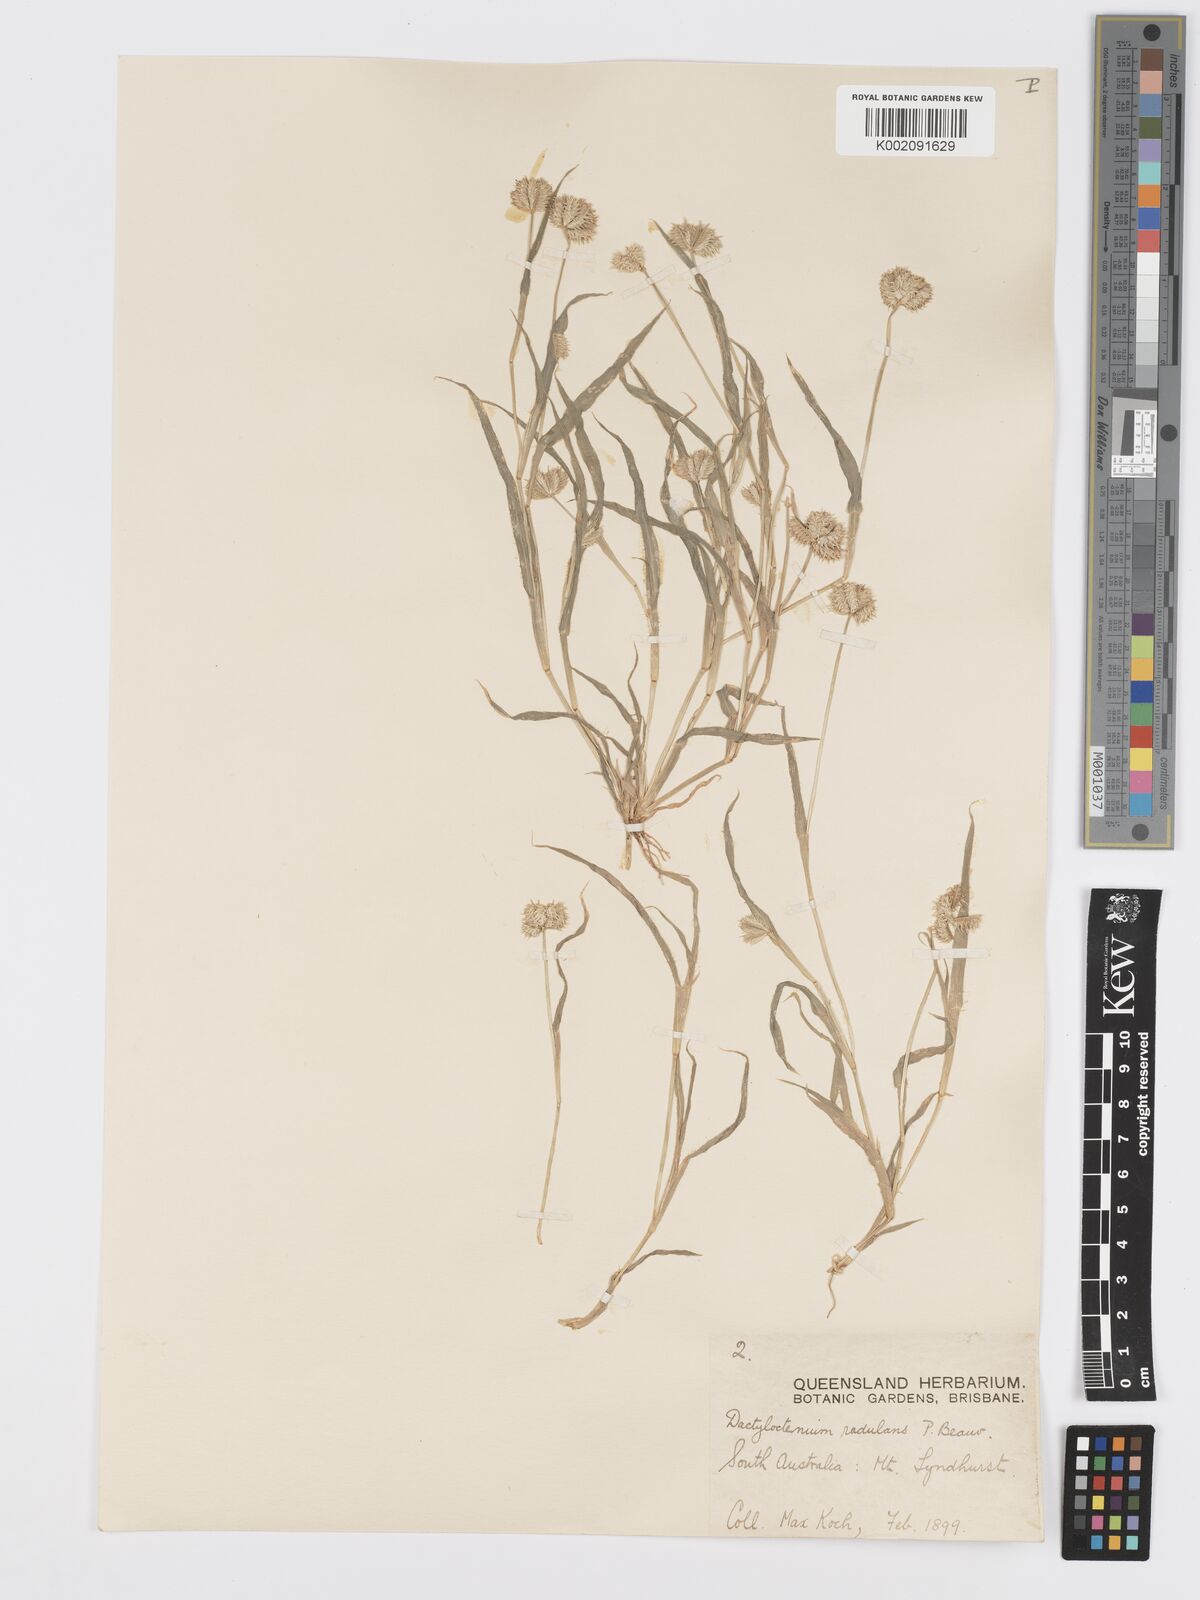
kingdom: Plantae
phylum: Tracheophyta
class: Liliopsida
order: Poales
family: Poaceae
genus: Dactyloctenium
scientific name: Dactyloctenium radulans
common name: Button-grass
